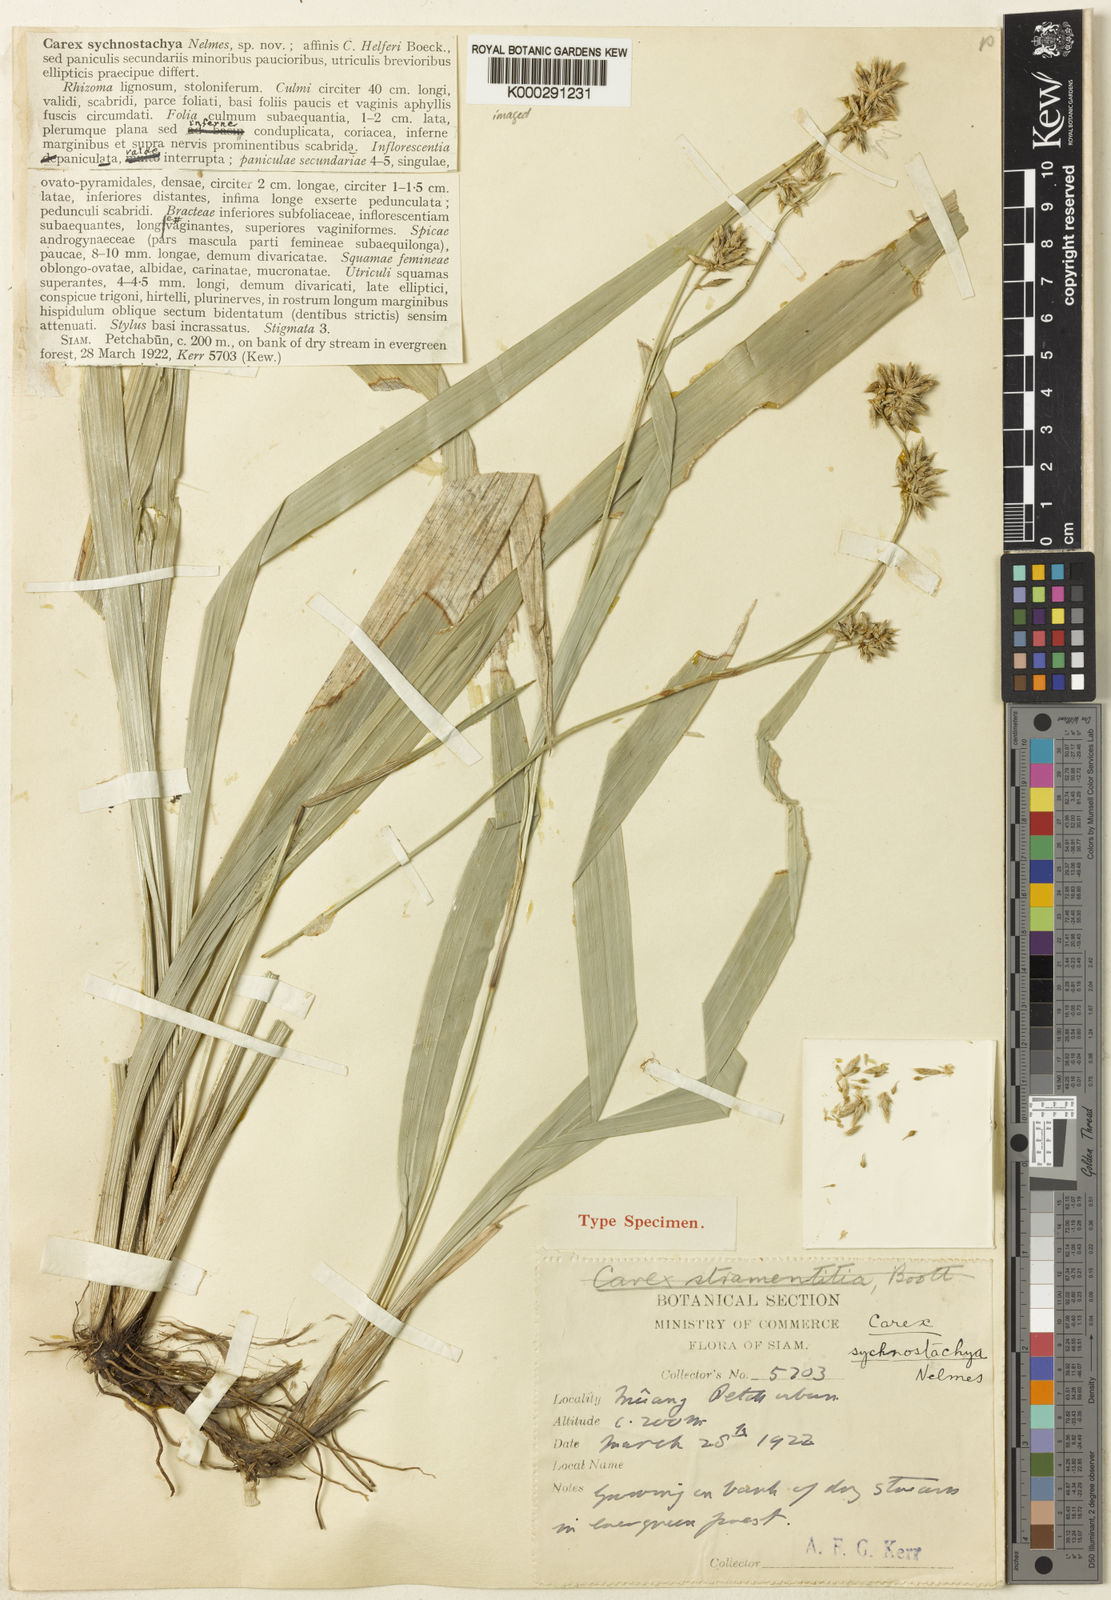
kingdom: Plantae
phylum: Tracheophyta
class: Liliopsida
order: Poales
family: Cyperaceae
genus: Carex
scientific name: Carex juvenilis
